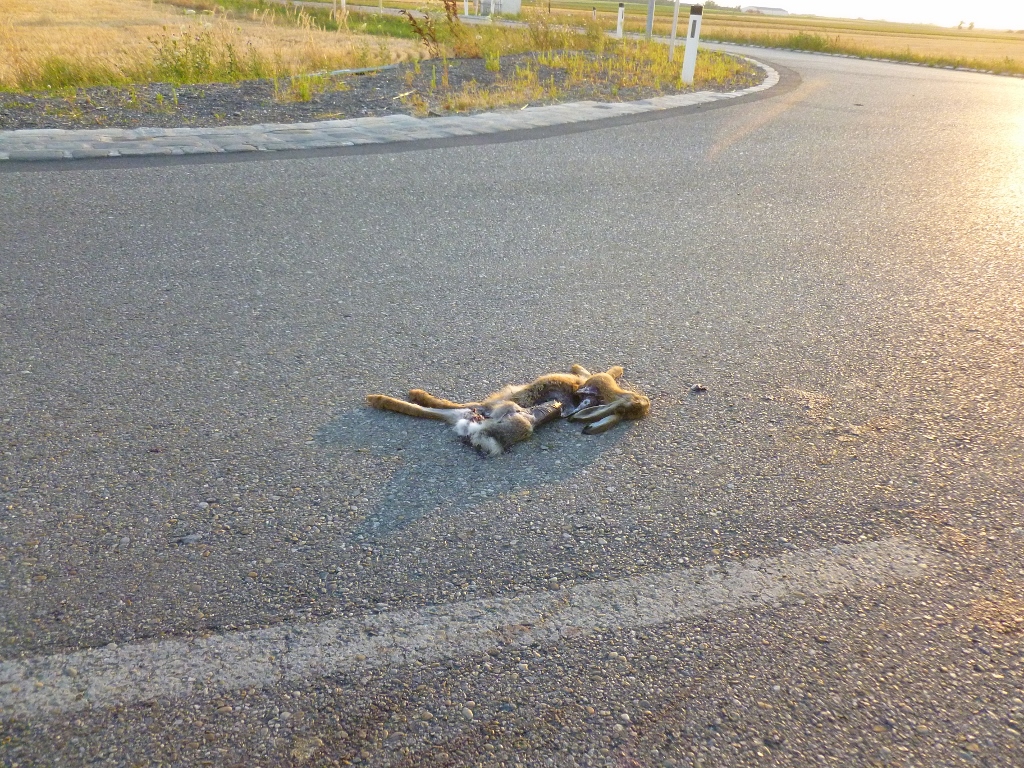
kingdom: Animalia
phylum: Chordata
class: Mammalia
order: Lagomorpha
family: Leporidae
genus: Lepus
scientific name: Lepus europaeus
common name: European hare
